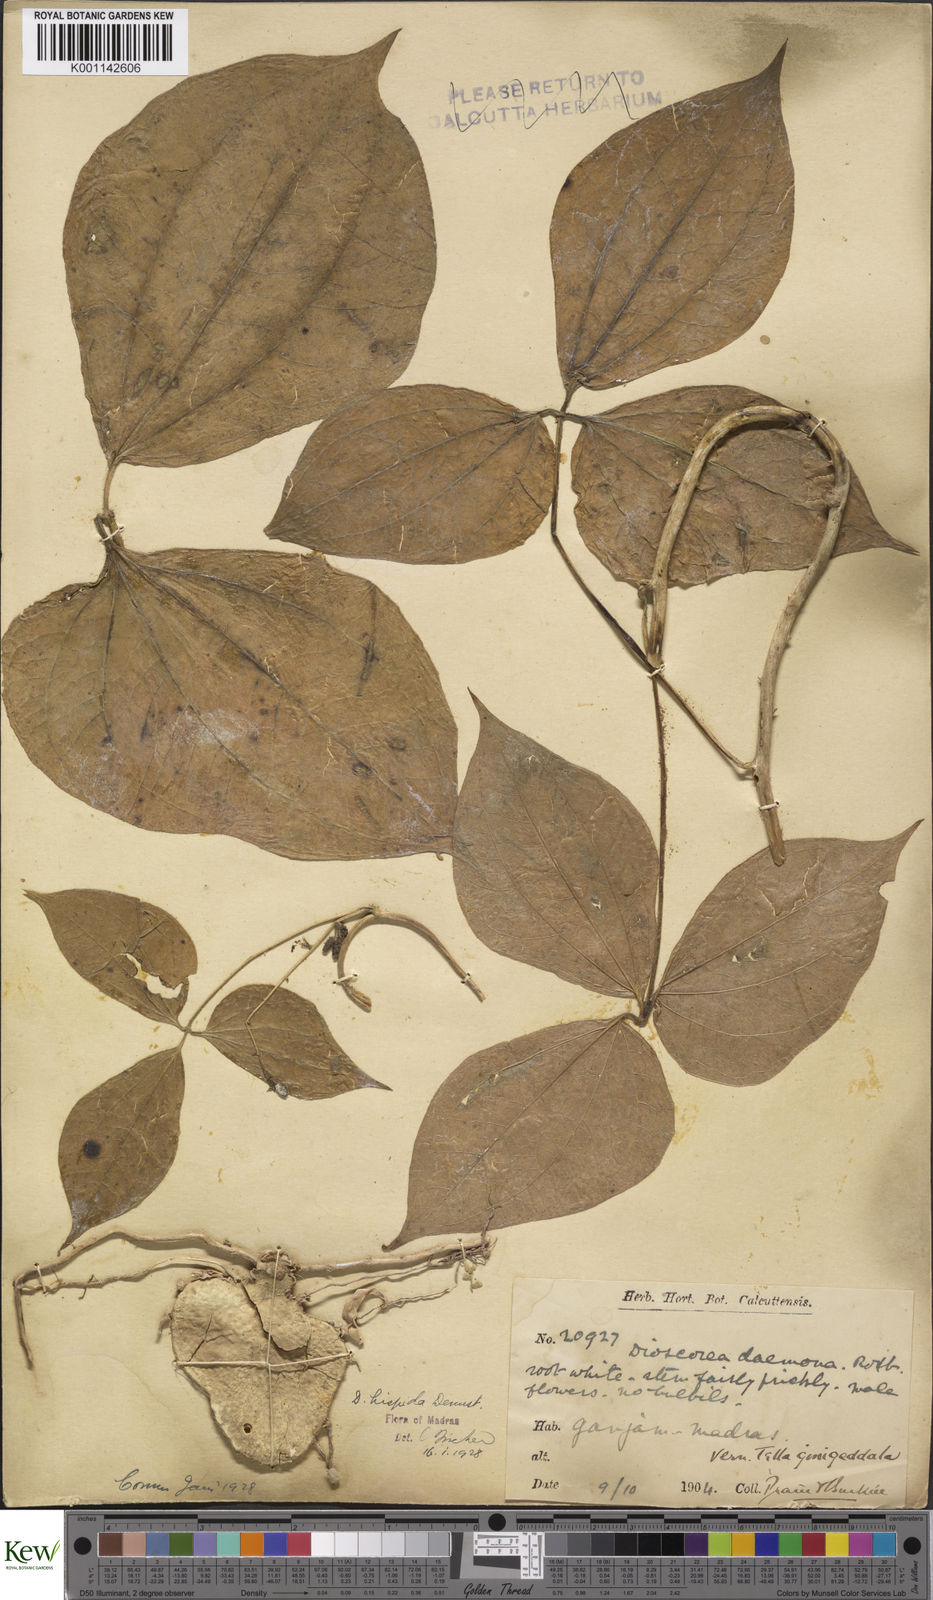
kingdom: Plantae
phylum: Tracheophyta
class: Liliopsida
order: Dioscoreales
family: Dioscoreaceae
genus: Dioscorea
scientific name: Dioscorea hispida
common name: Asiatic bitter yam
